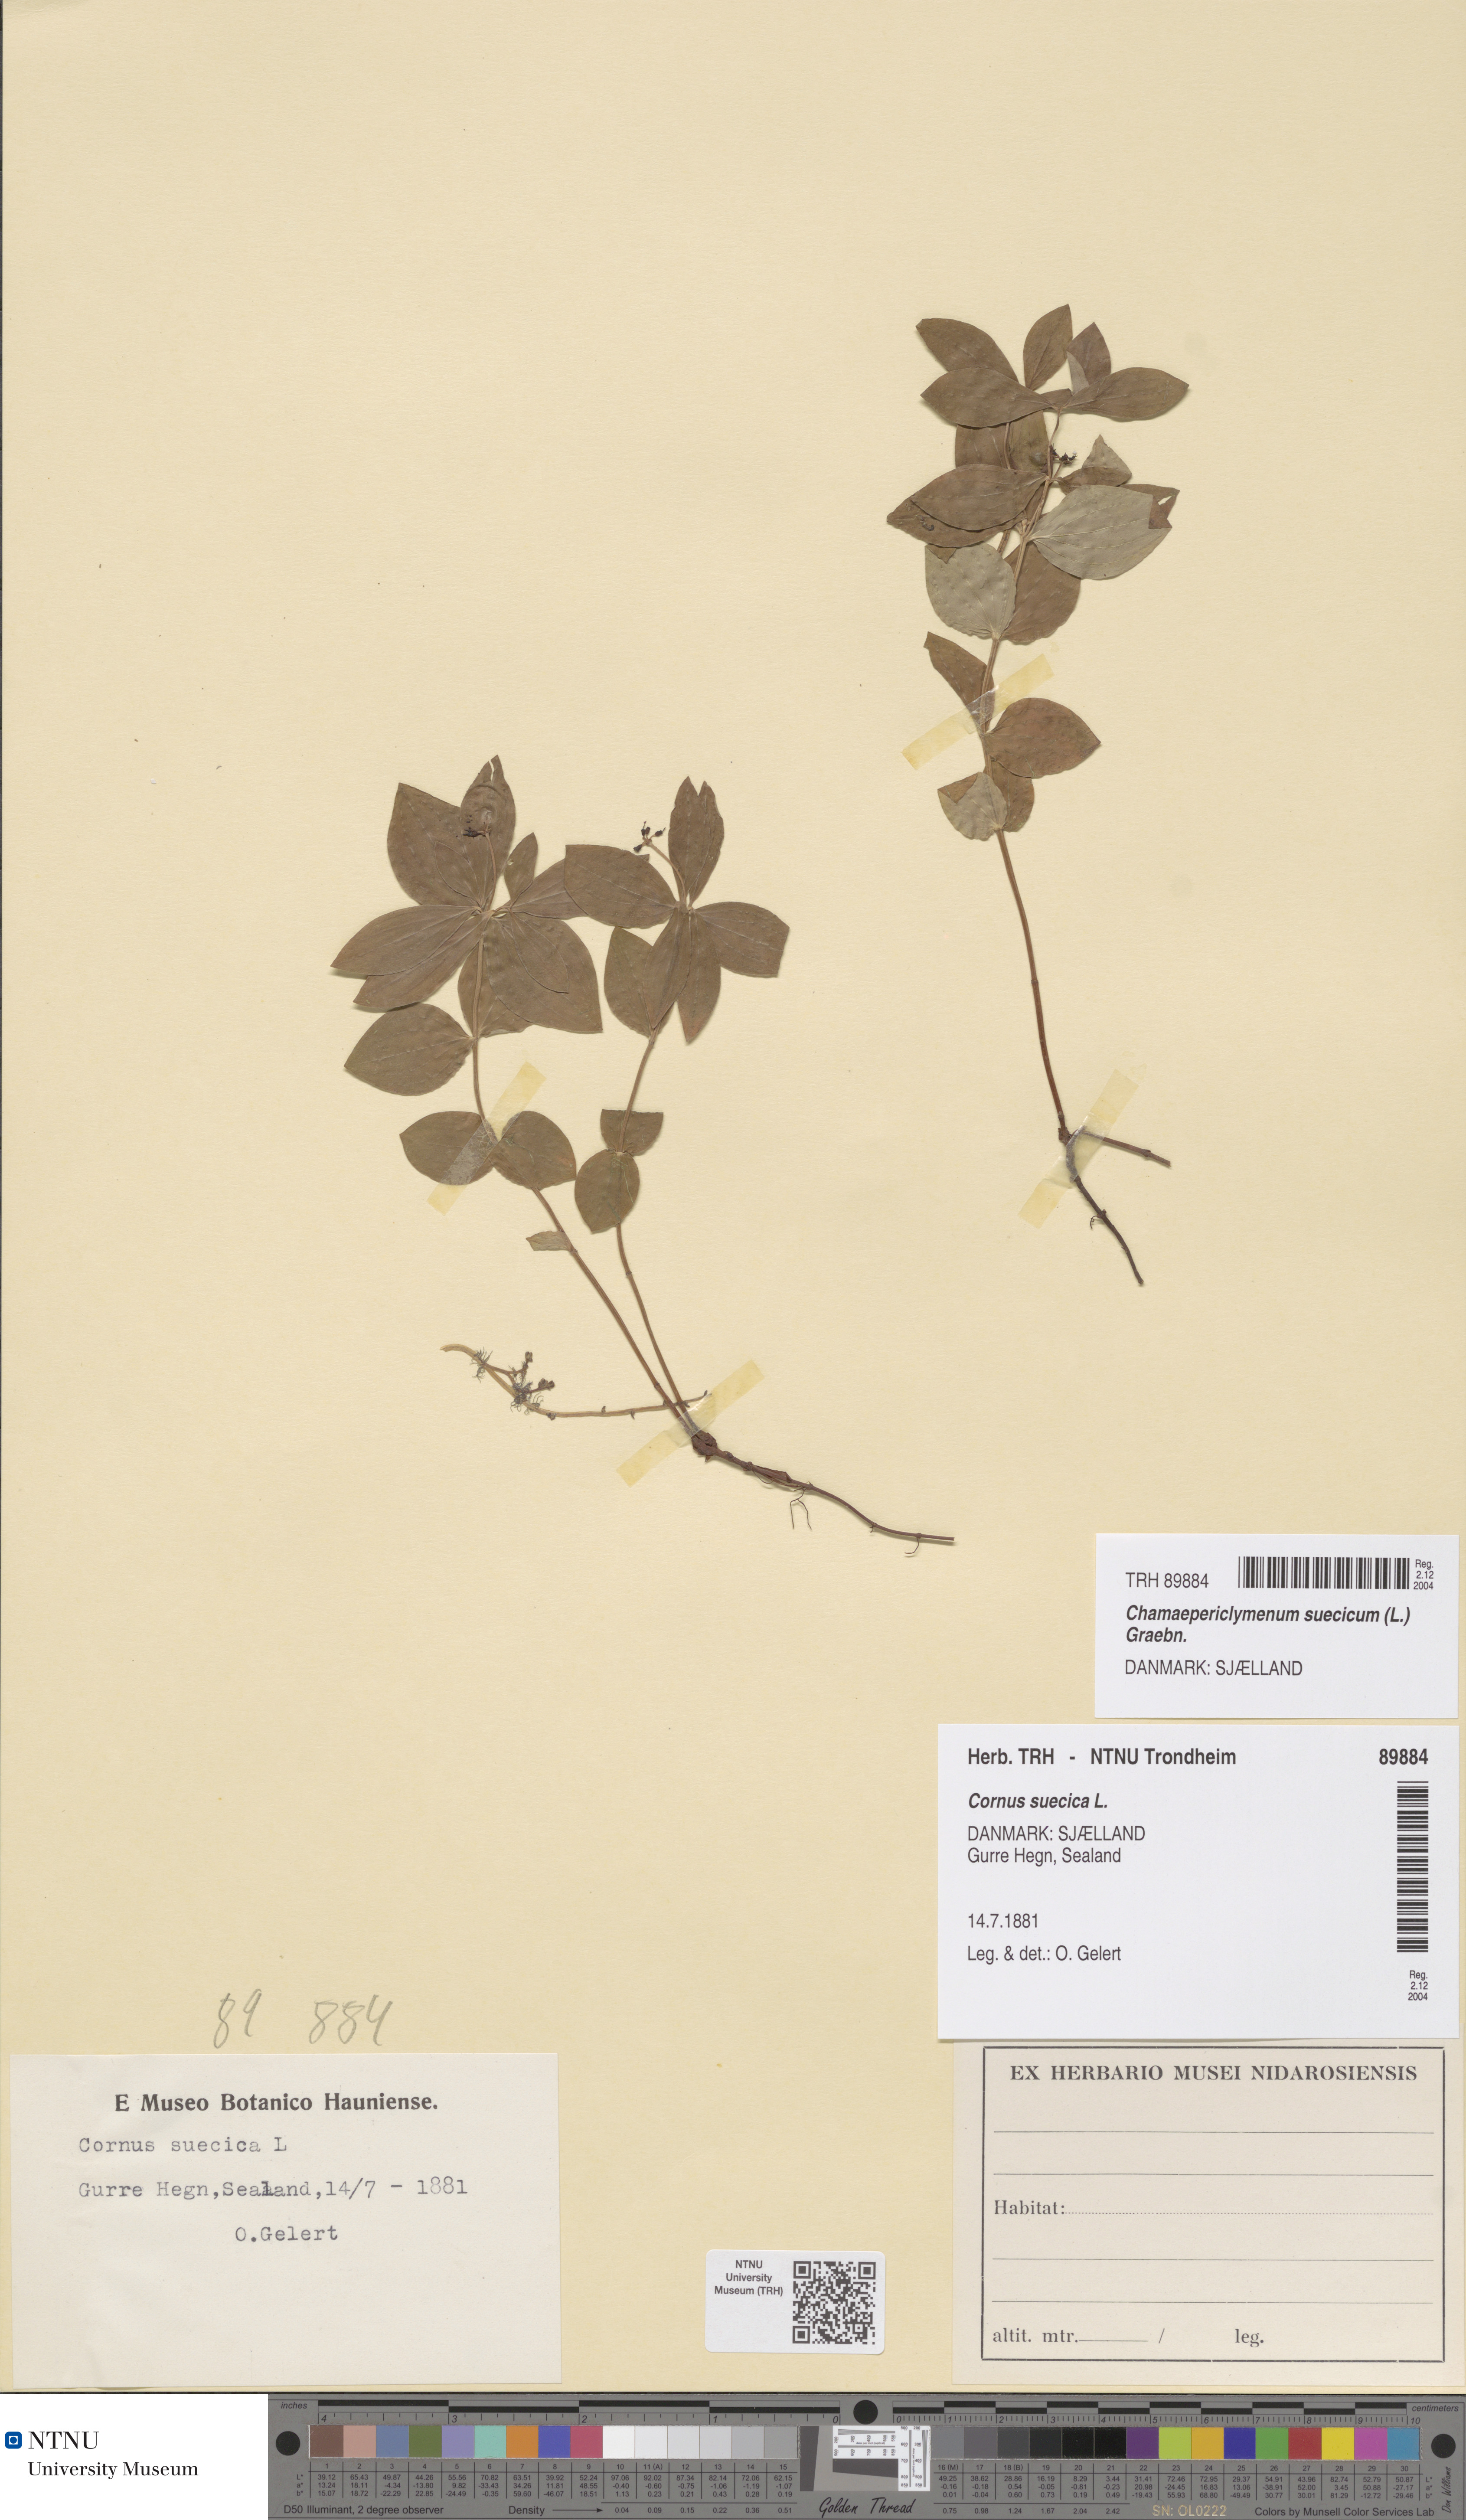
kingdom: Plantae
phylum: Tracheophyta
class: Magnoliopsida
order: Cornales
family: Cornaceae
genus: Cornus
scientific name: Cornus suecica
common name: Dwarf cornel
